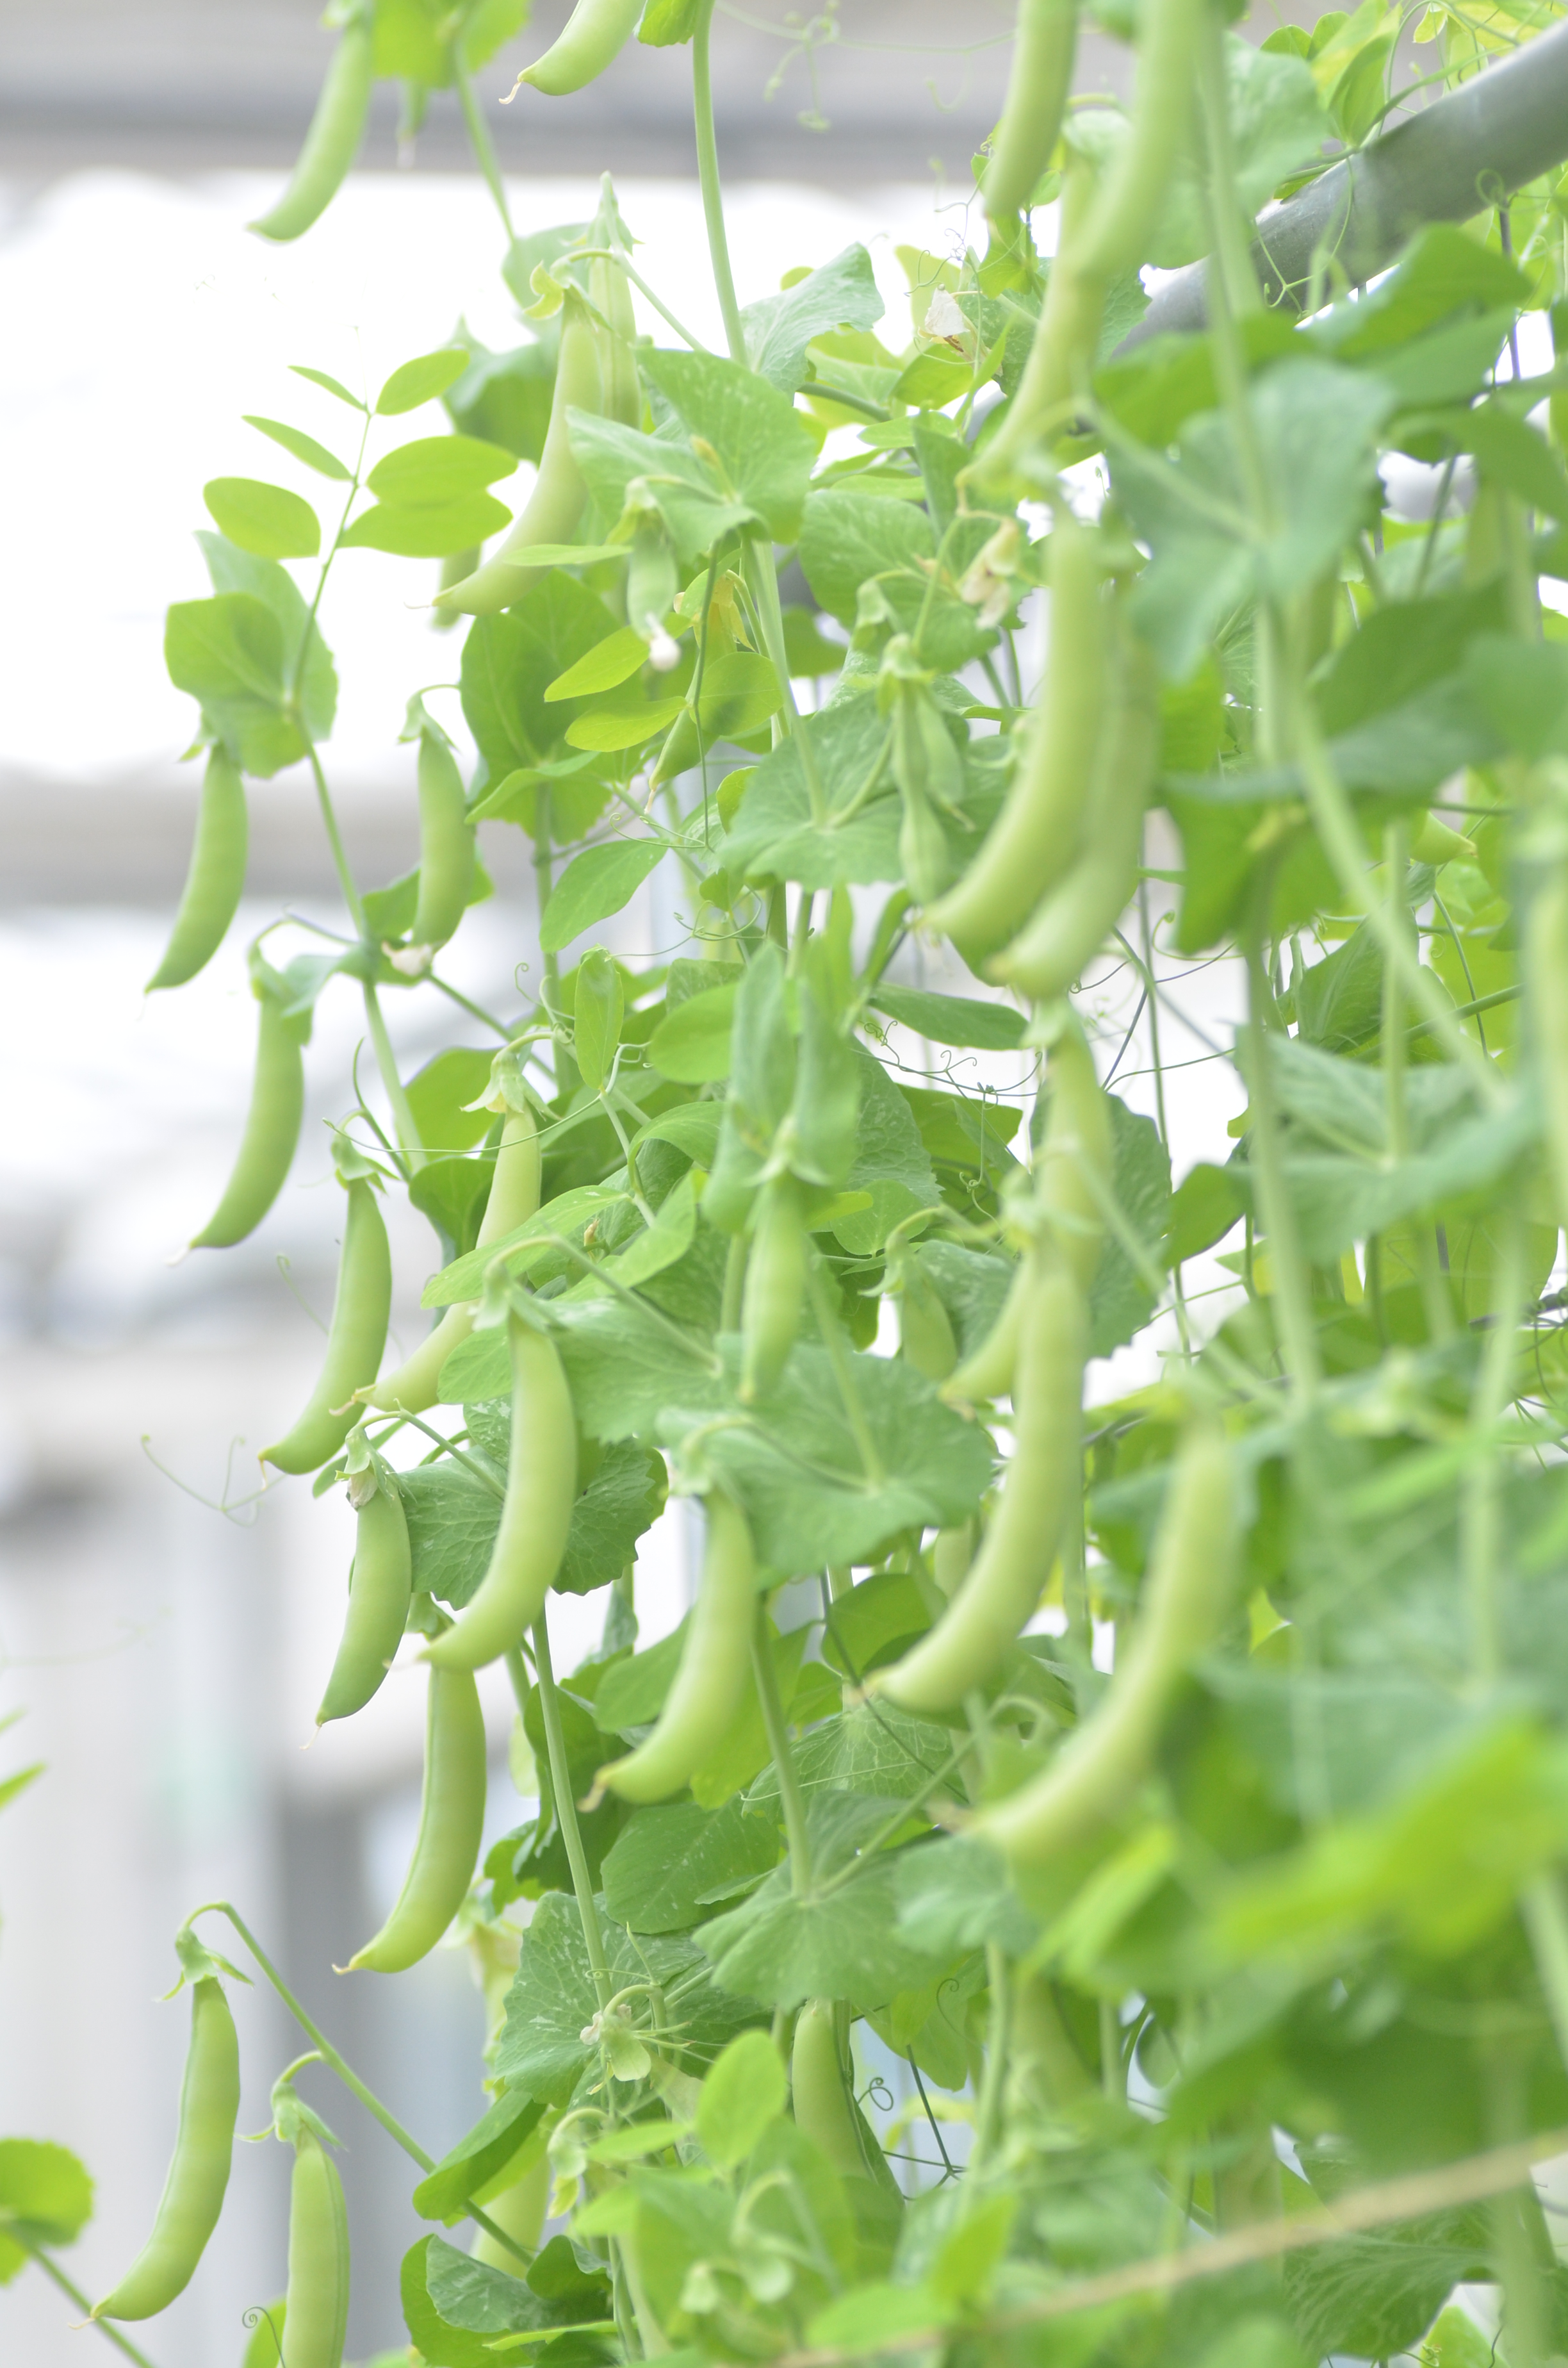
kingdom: Plantae
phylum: Tracheophyta
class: Magnoliopsida
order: Fabales
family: Fabaceae
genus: Lathyrus
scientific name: Lathyrus oleraceus
